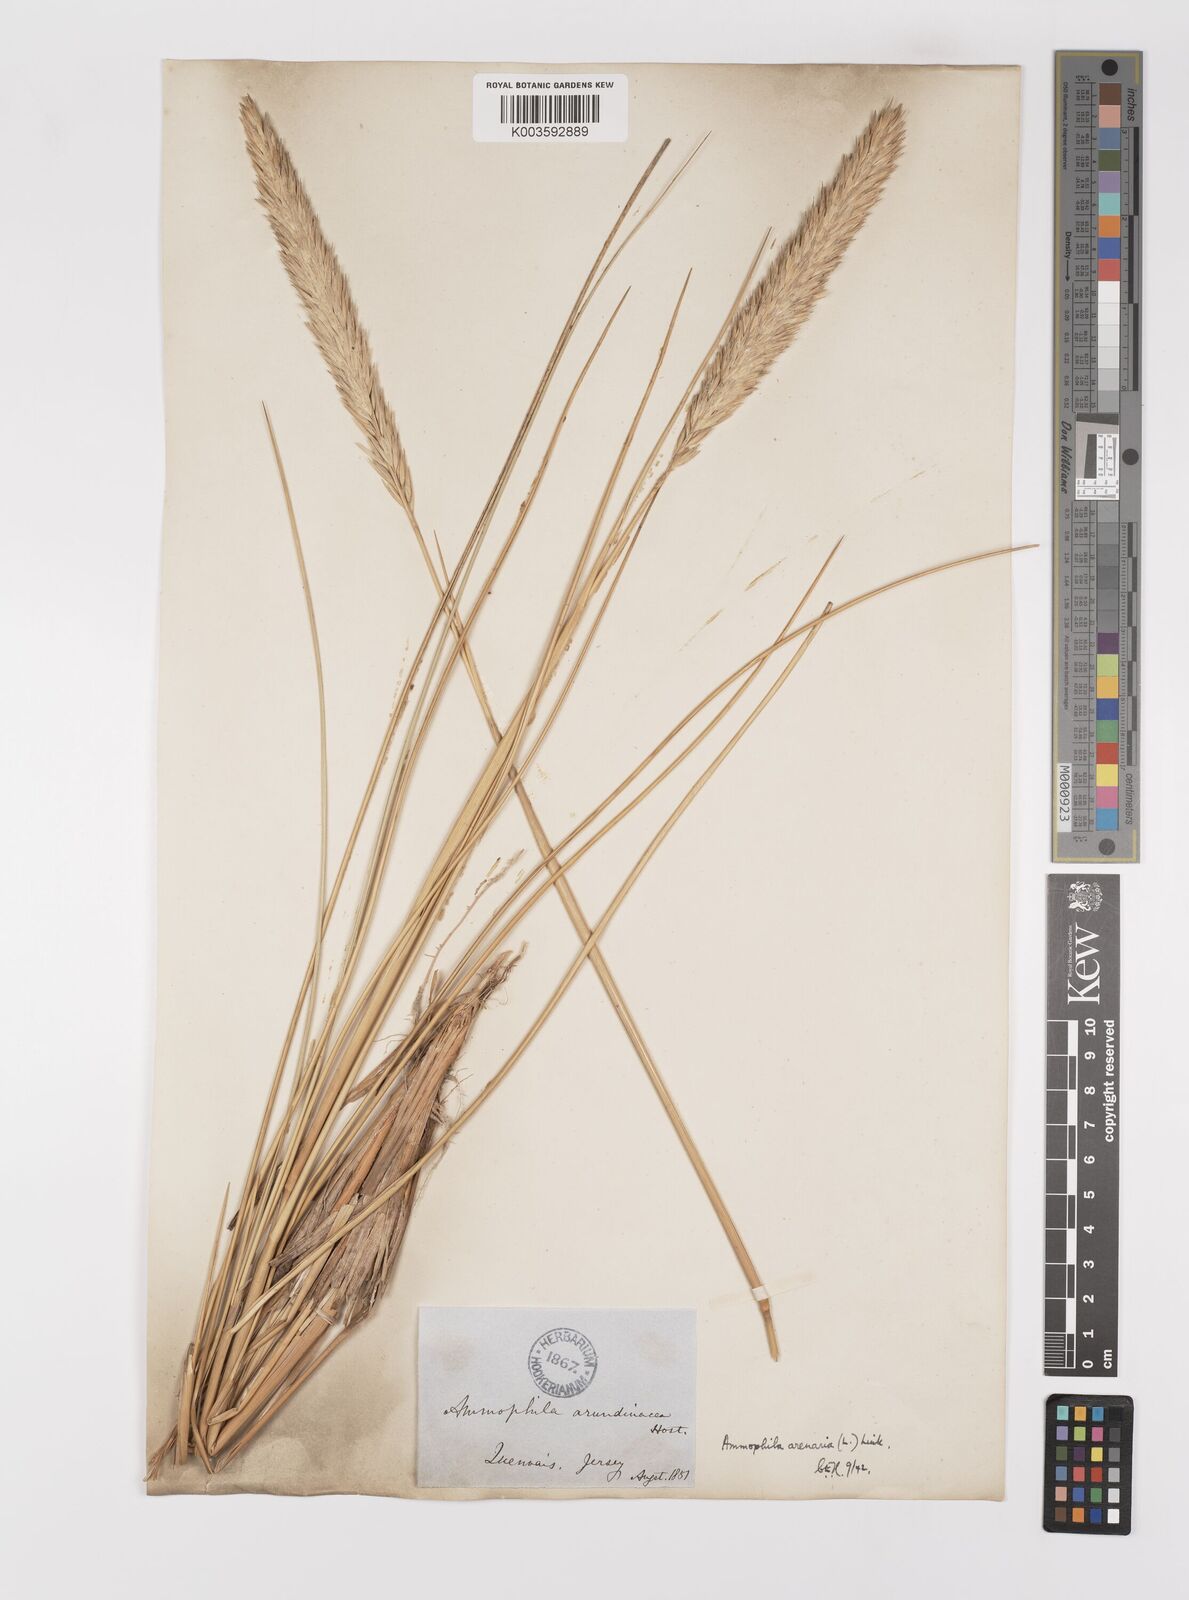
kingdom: Plantae
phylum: Tracheophyta
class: Liliopsida
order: Poales
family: Poaceae
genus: Calamagrostis
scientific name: Calamagrostis arenaria
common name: European beachgrass
